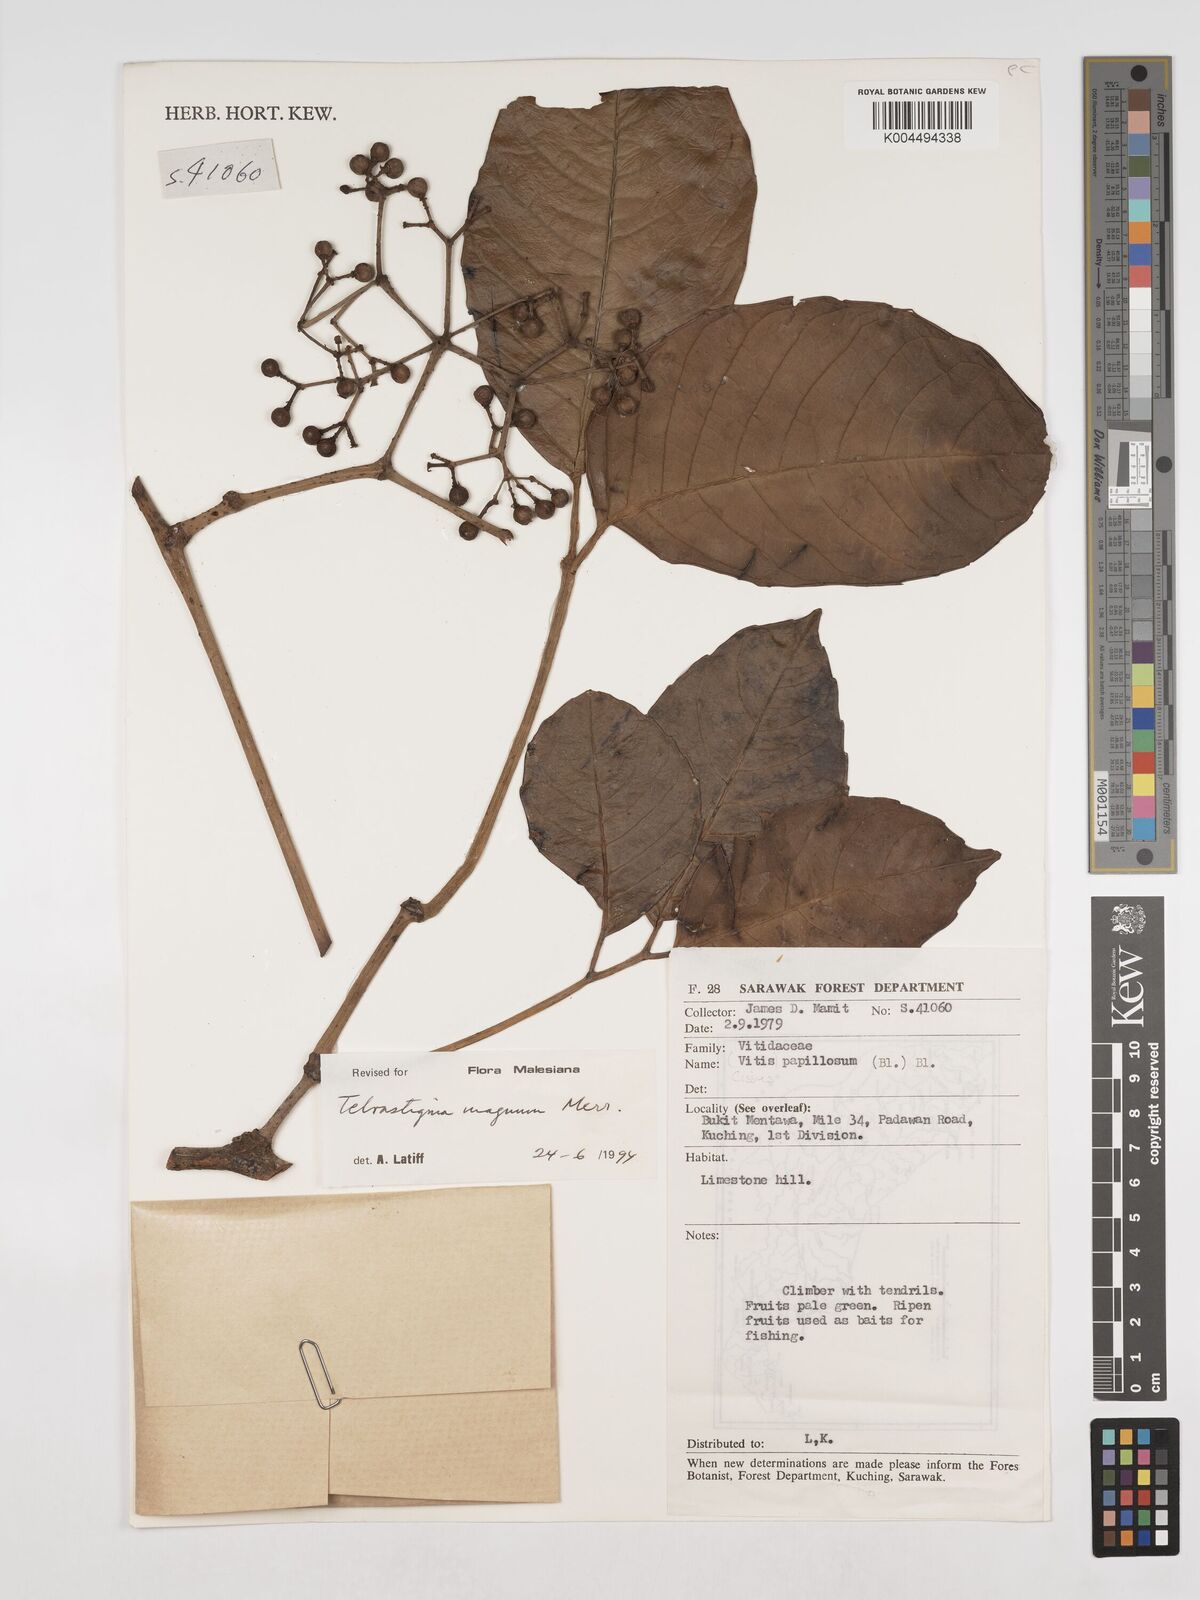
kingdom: Plantae
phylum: Tracheophyta
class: Magnoliopsida
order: Vitales
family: Vitaceae
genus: Tetrastigma
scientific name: Tetrastigma magnum
